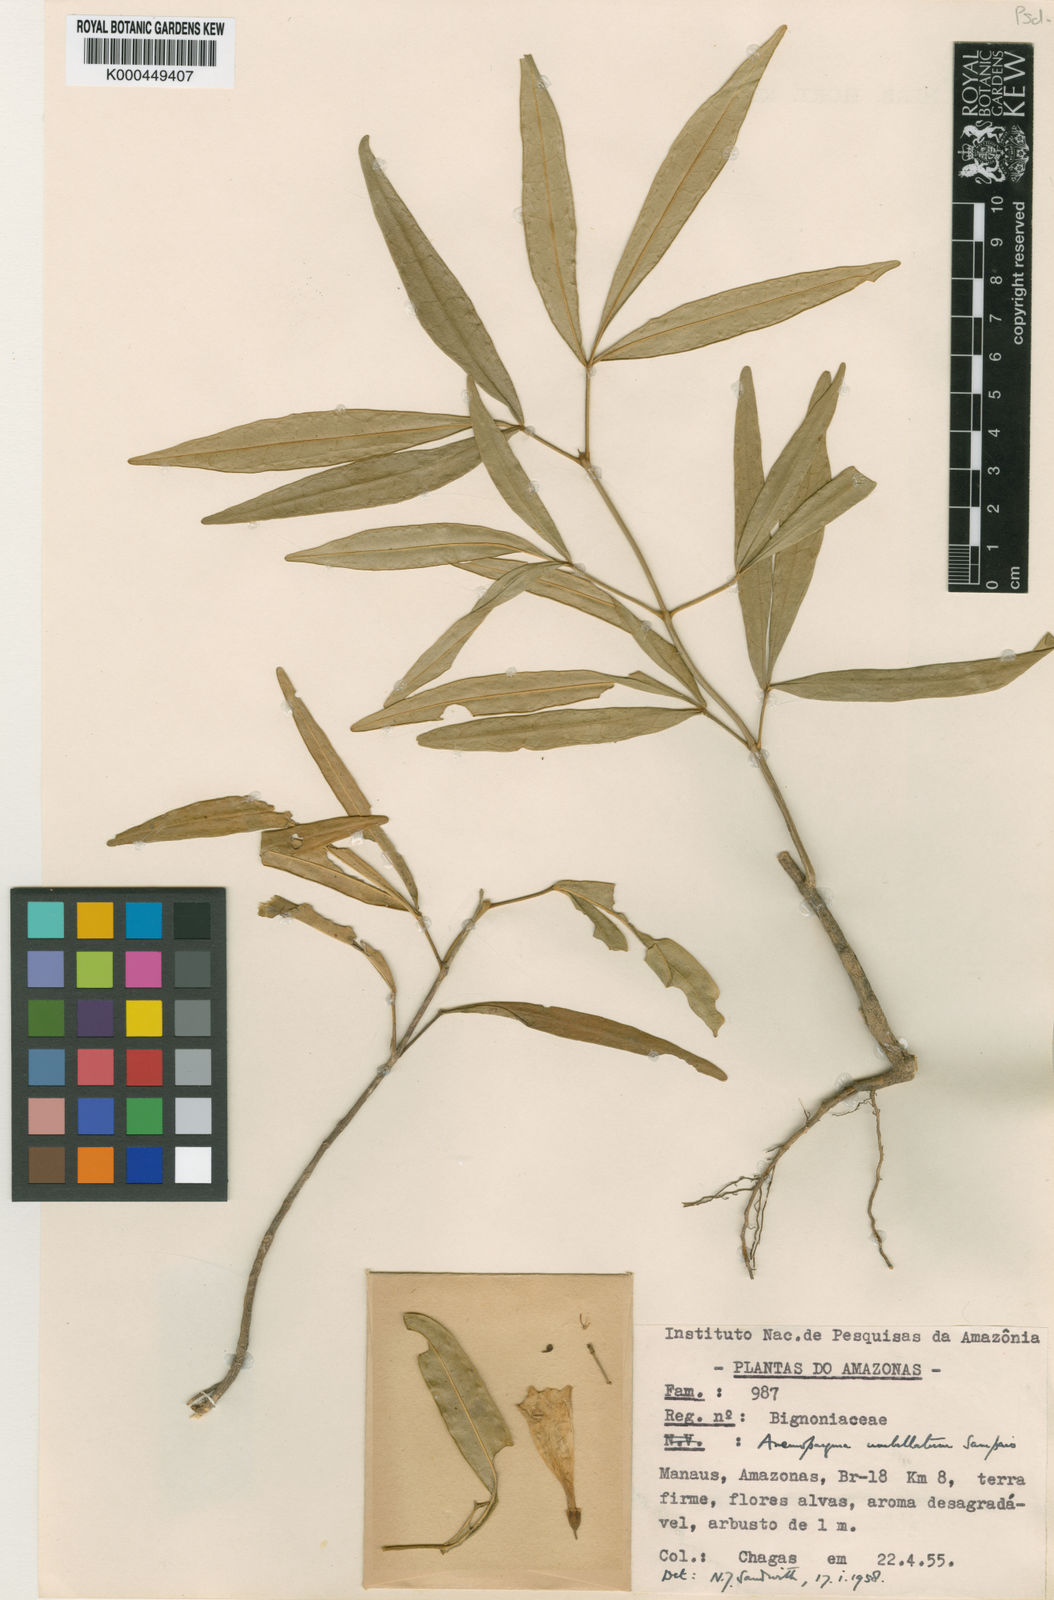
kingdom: Plantae
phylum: Tracheophyta
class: Magnoliopsida
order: Lamiales
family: Bignoniaceae
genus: Anemopaegma
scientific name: Anemopaegma foetidum
